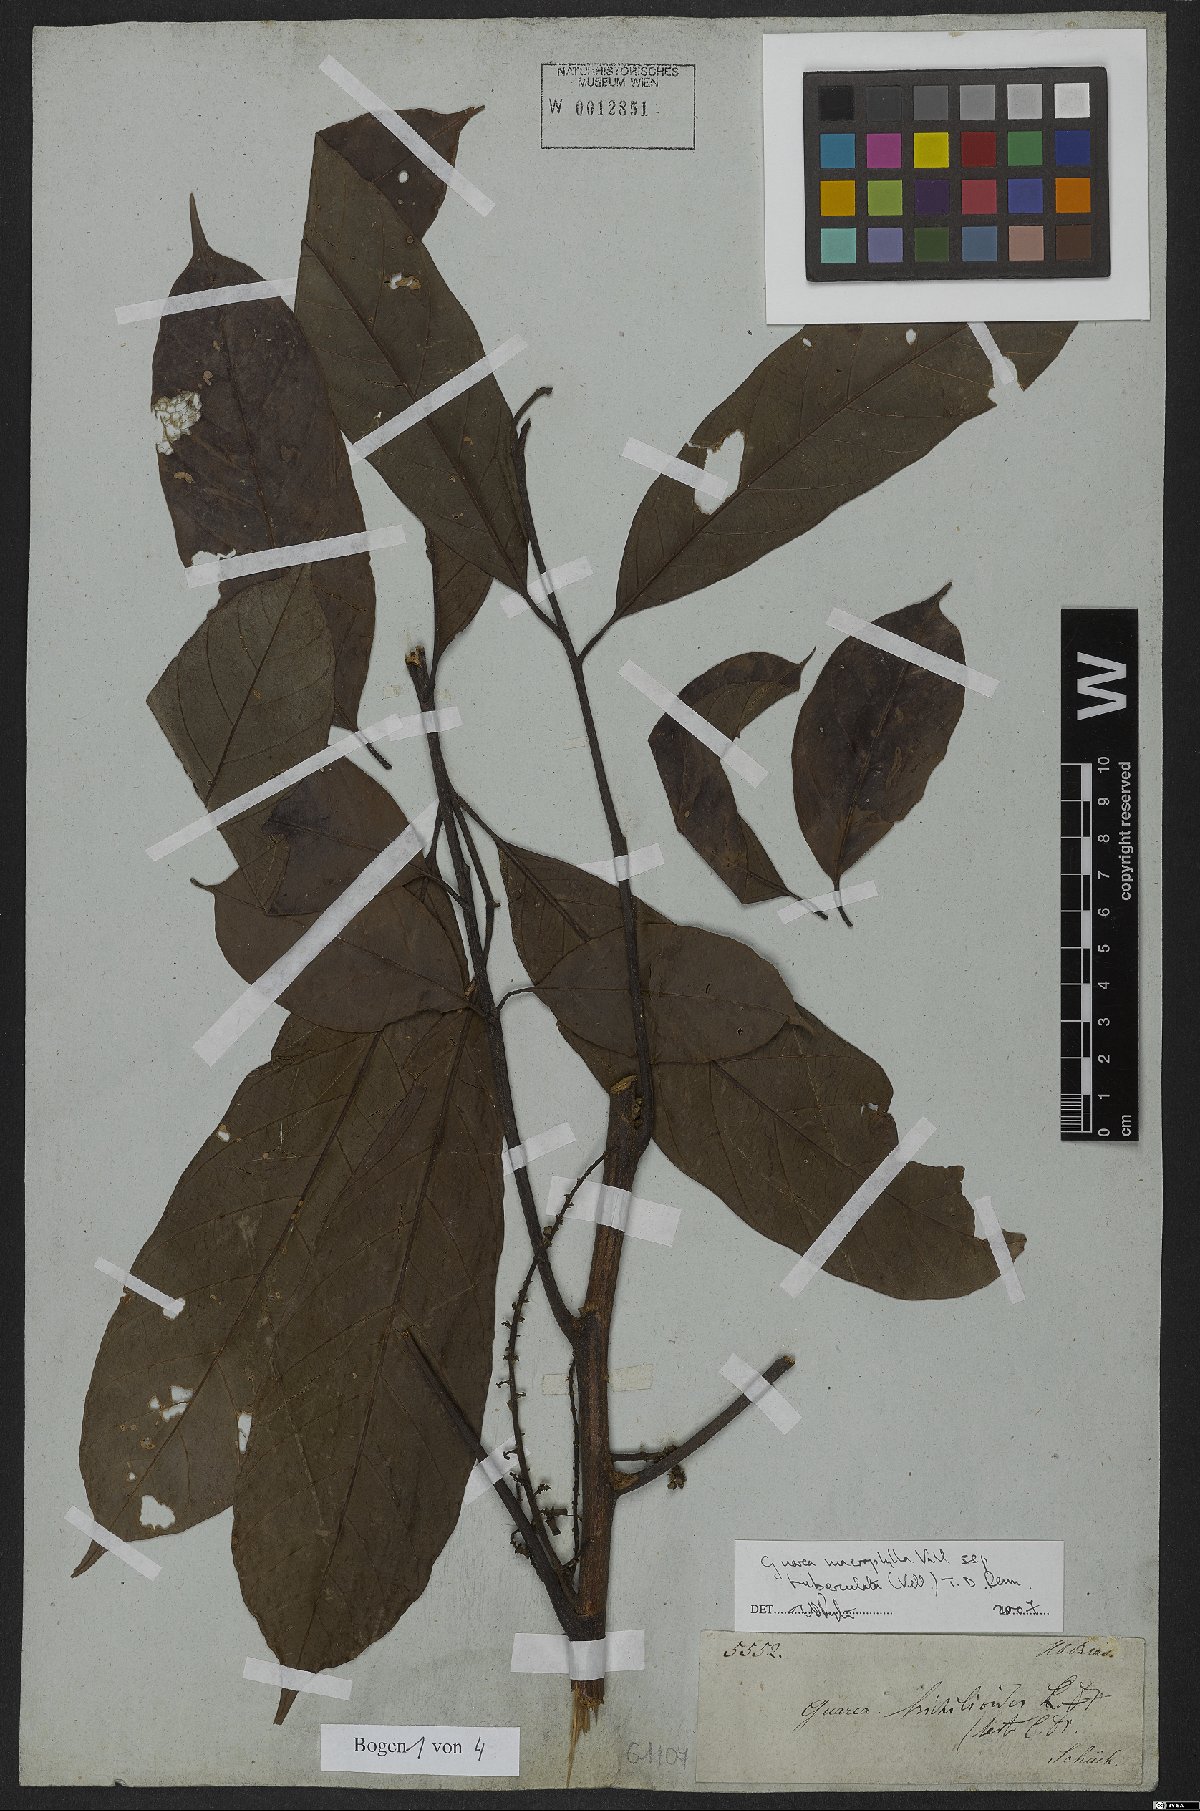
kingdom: Plantae
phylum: Tracheophyta
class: Magnoliopsida
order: Sapindales
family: Meliaceae
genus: Guarea
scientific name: Guarea macrophylla
